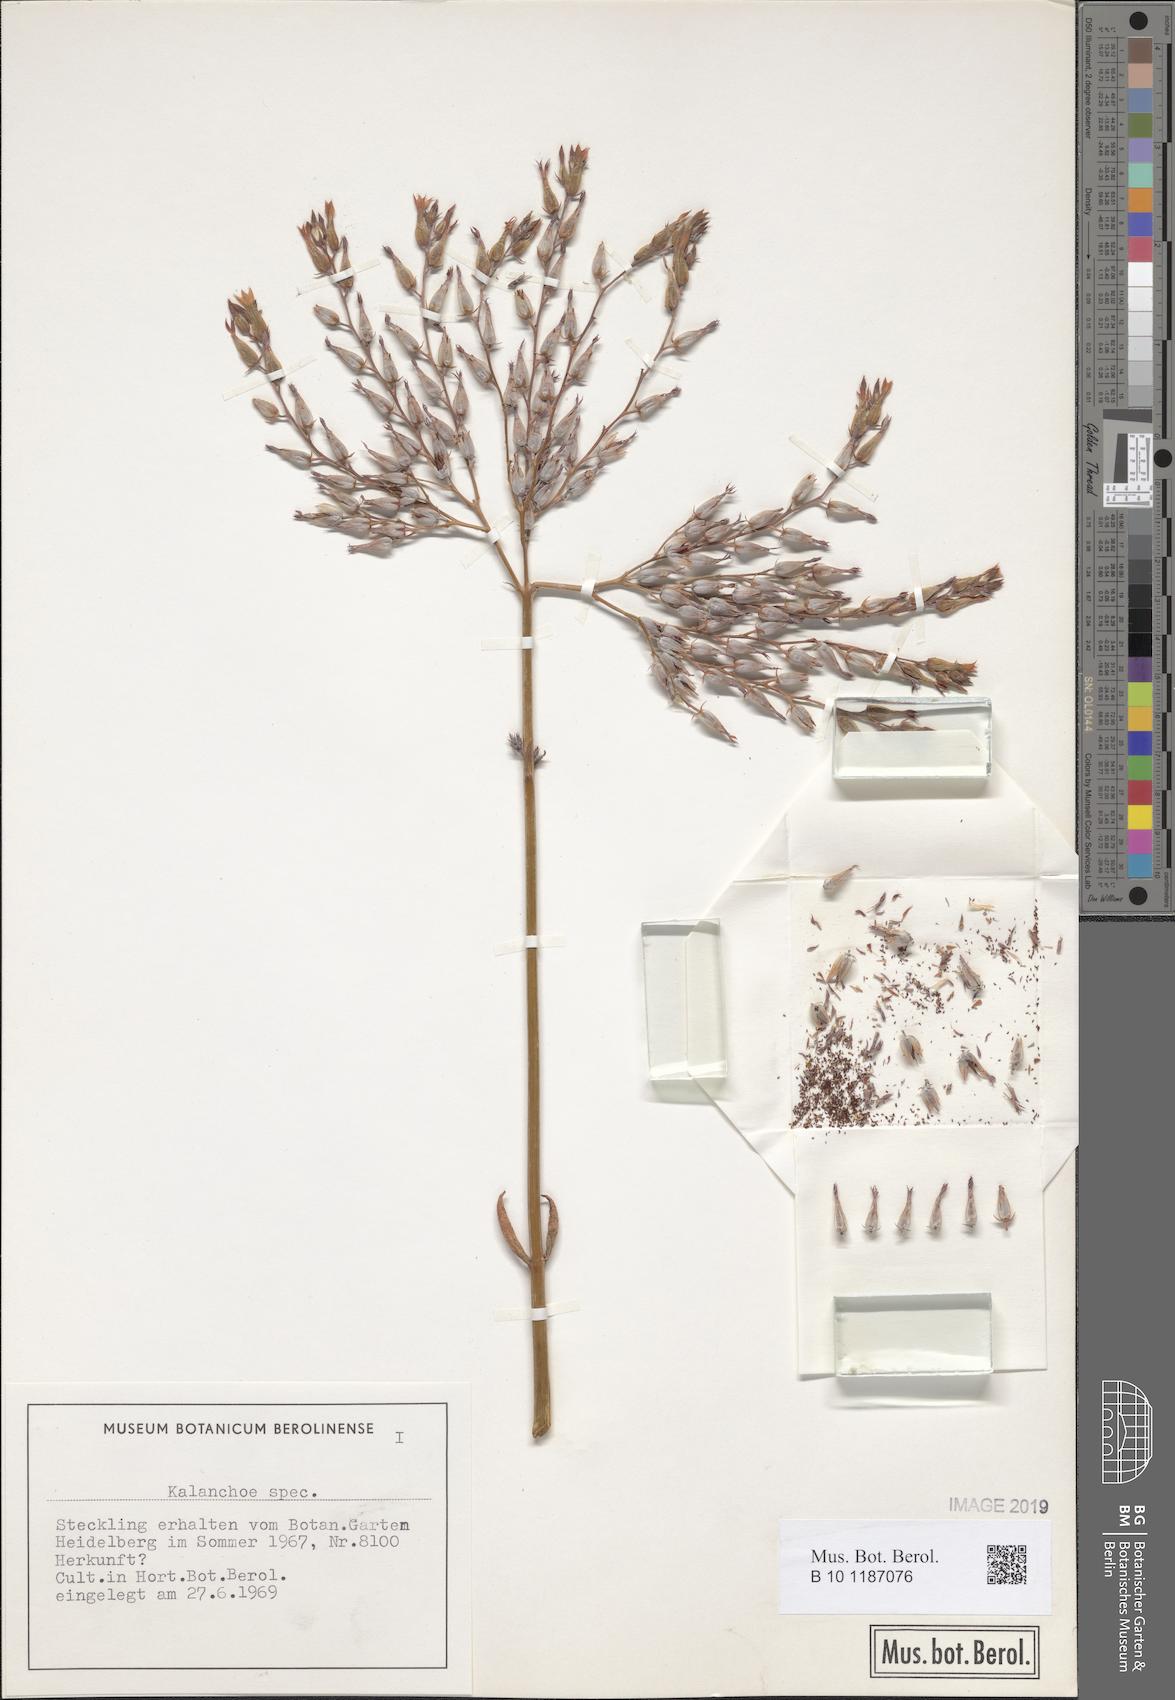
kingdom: Plantae
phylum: Tracheophyta
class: Magnoliopsida
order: Saxifragales
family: Crassulaceae
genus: Kalanchoe
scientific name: Kalanchoe
